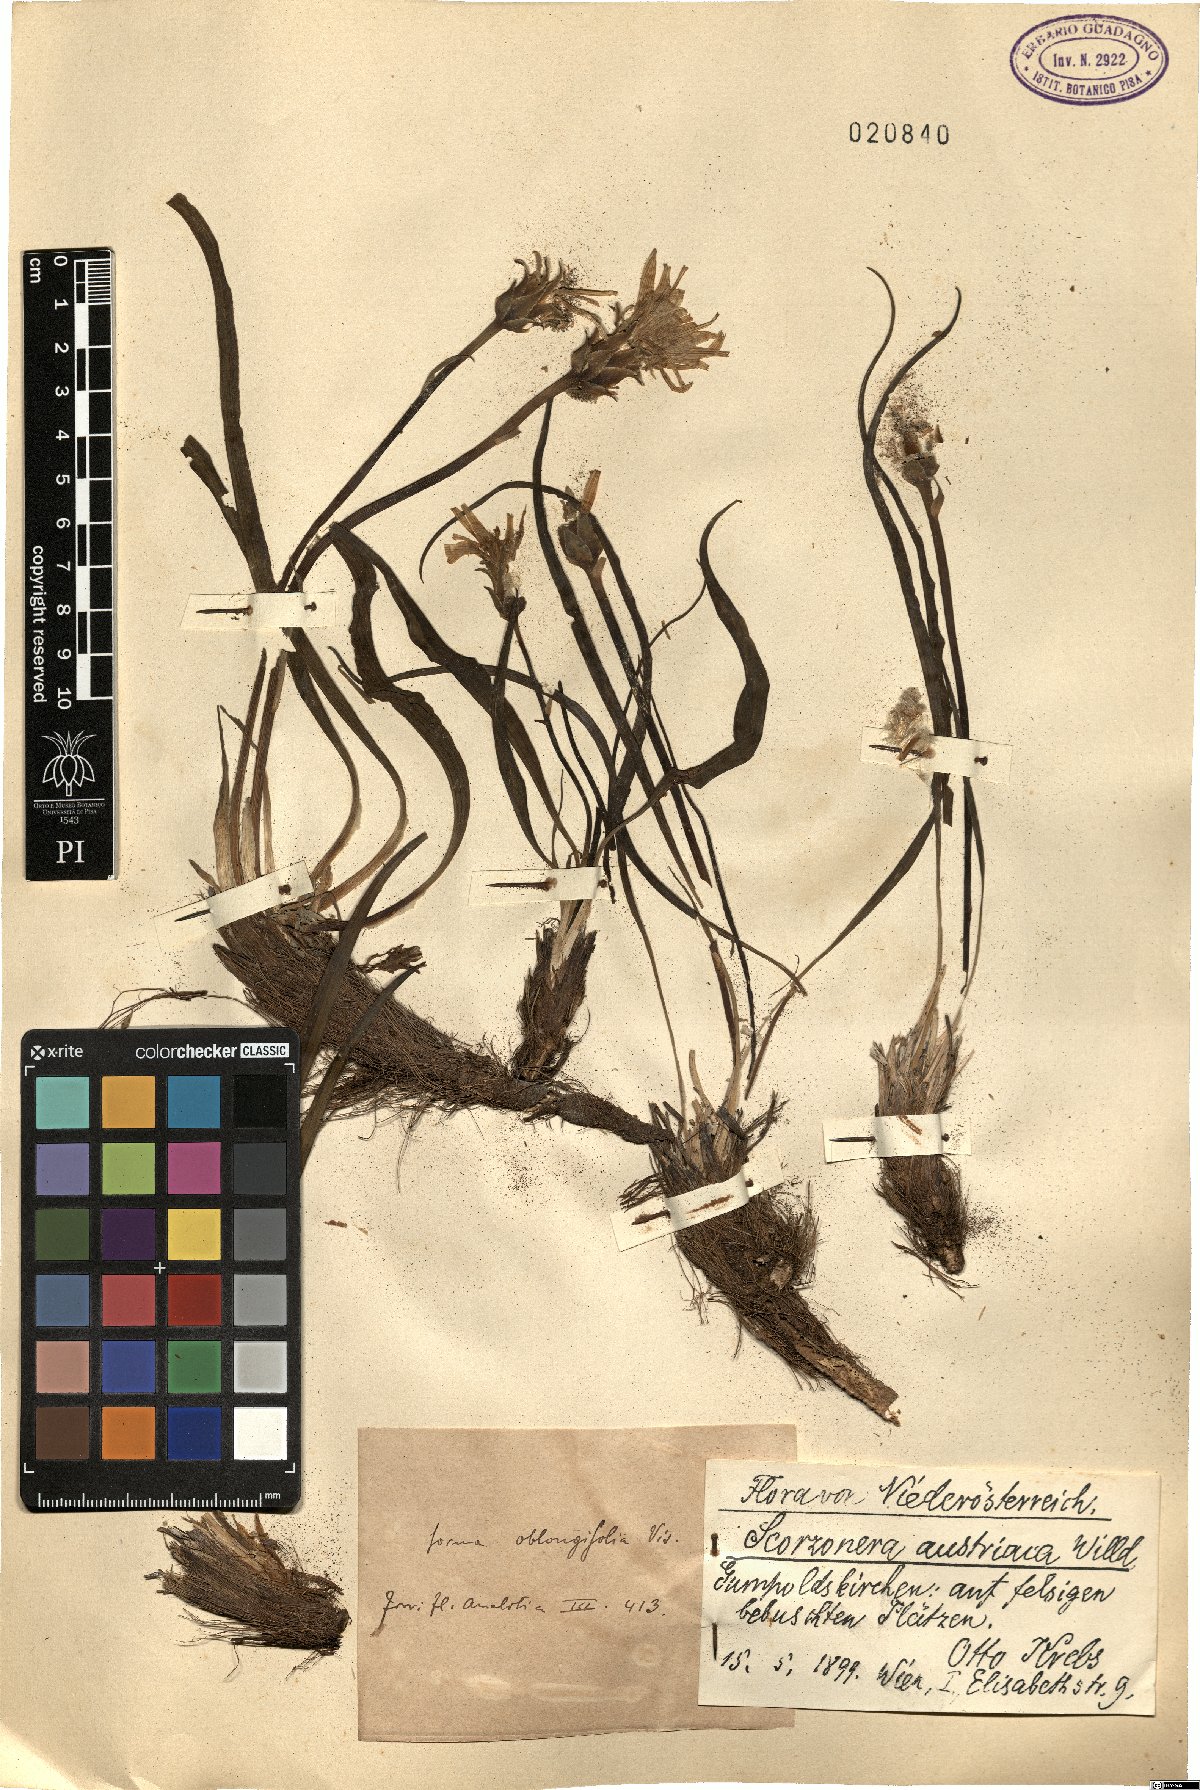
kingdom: Plantae
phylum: Tracheophyta
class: Magnoliopsida
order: Asterales
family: Asteraceae
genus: Takhtajaniantha
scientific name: Takhtajaniantha austriaca
